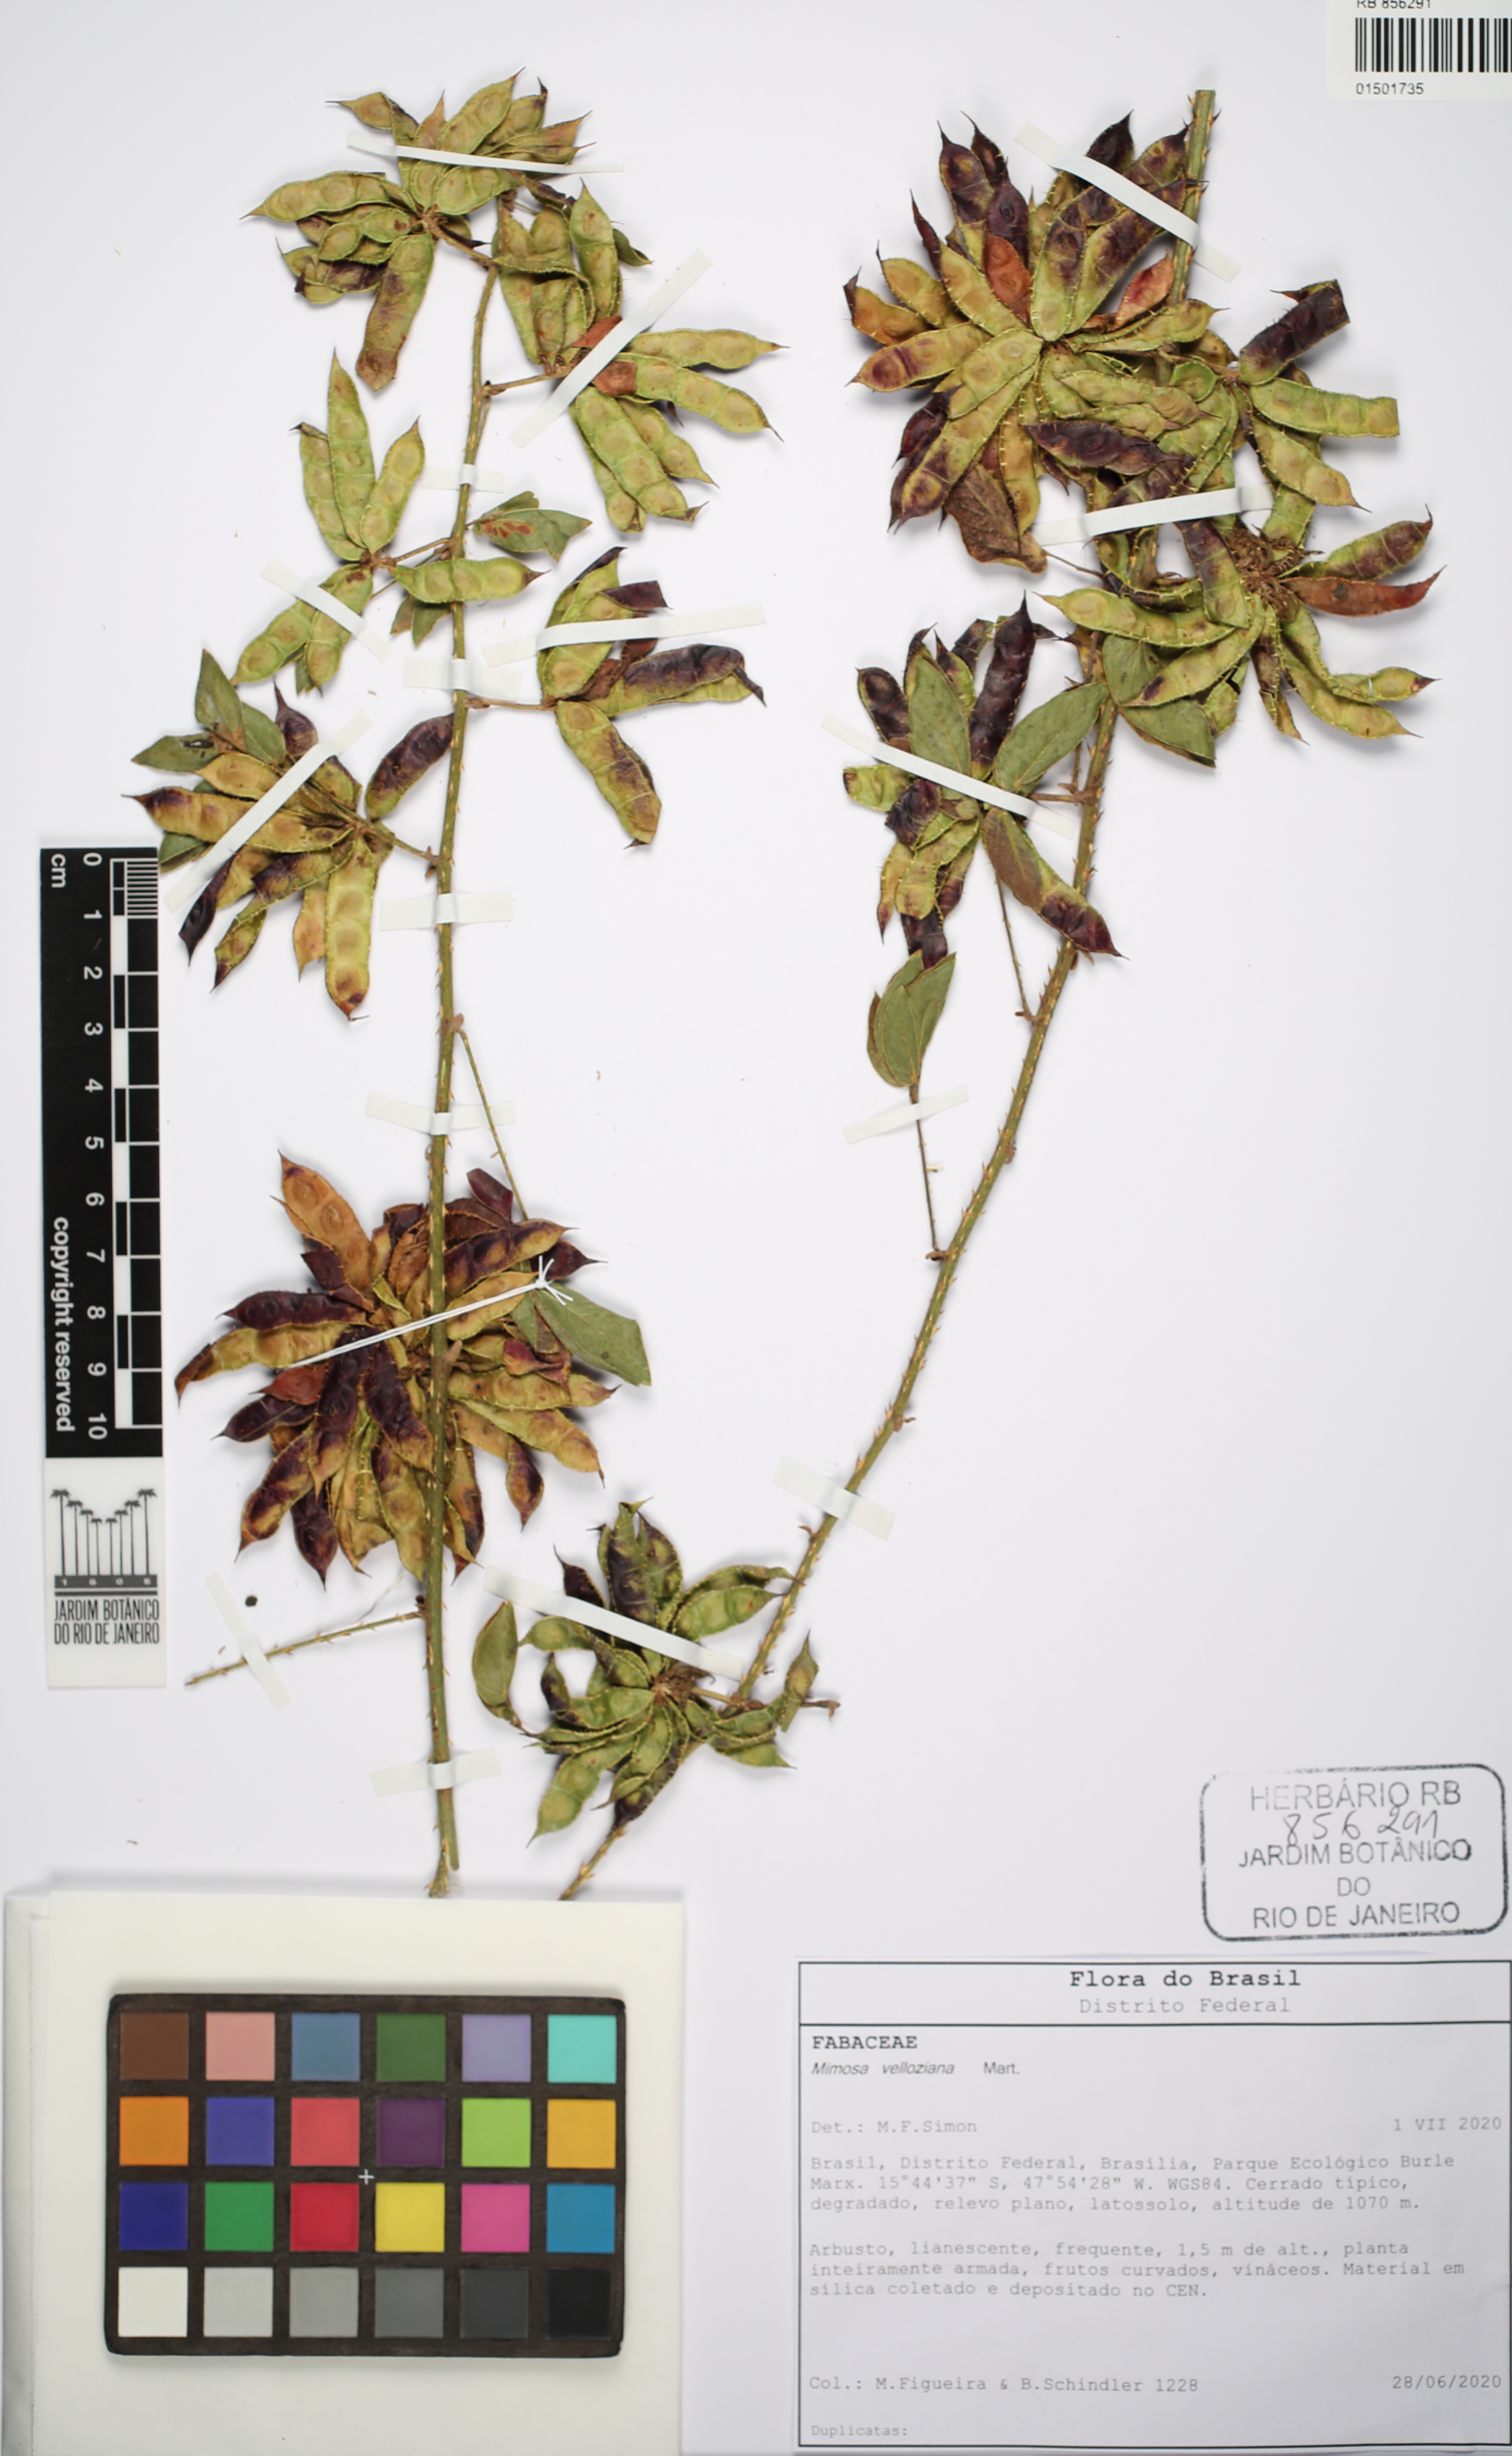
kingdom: Plantae
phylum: Tracheophyta
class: Magnoliopsida
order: Fabales
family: Fabaceae
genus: Mimosa
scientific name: Mimosa velloziana
